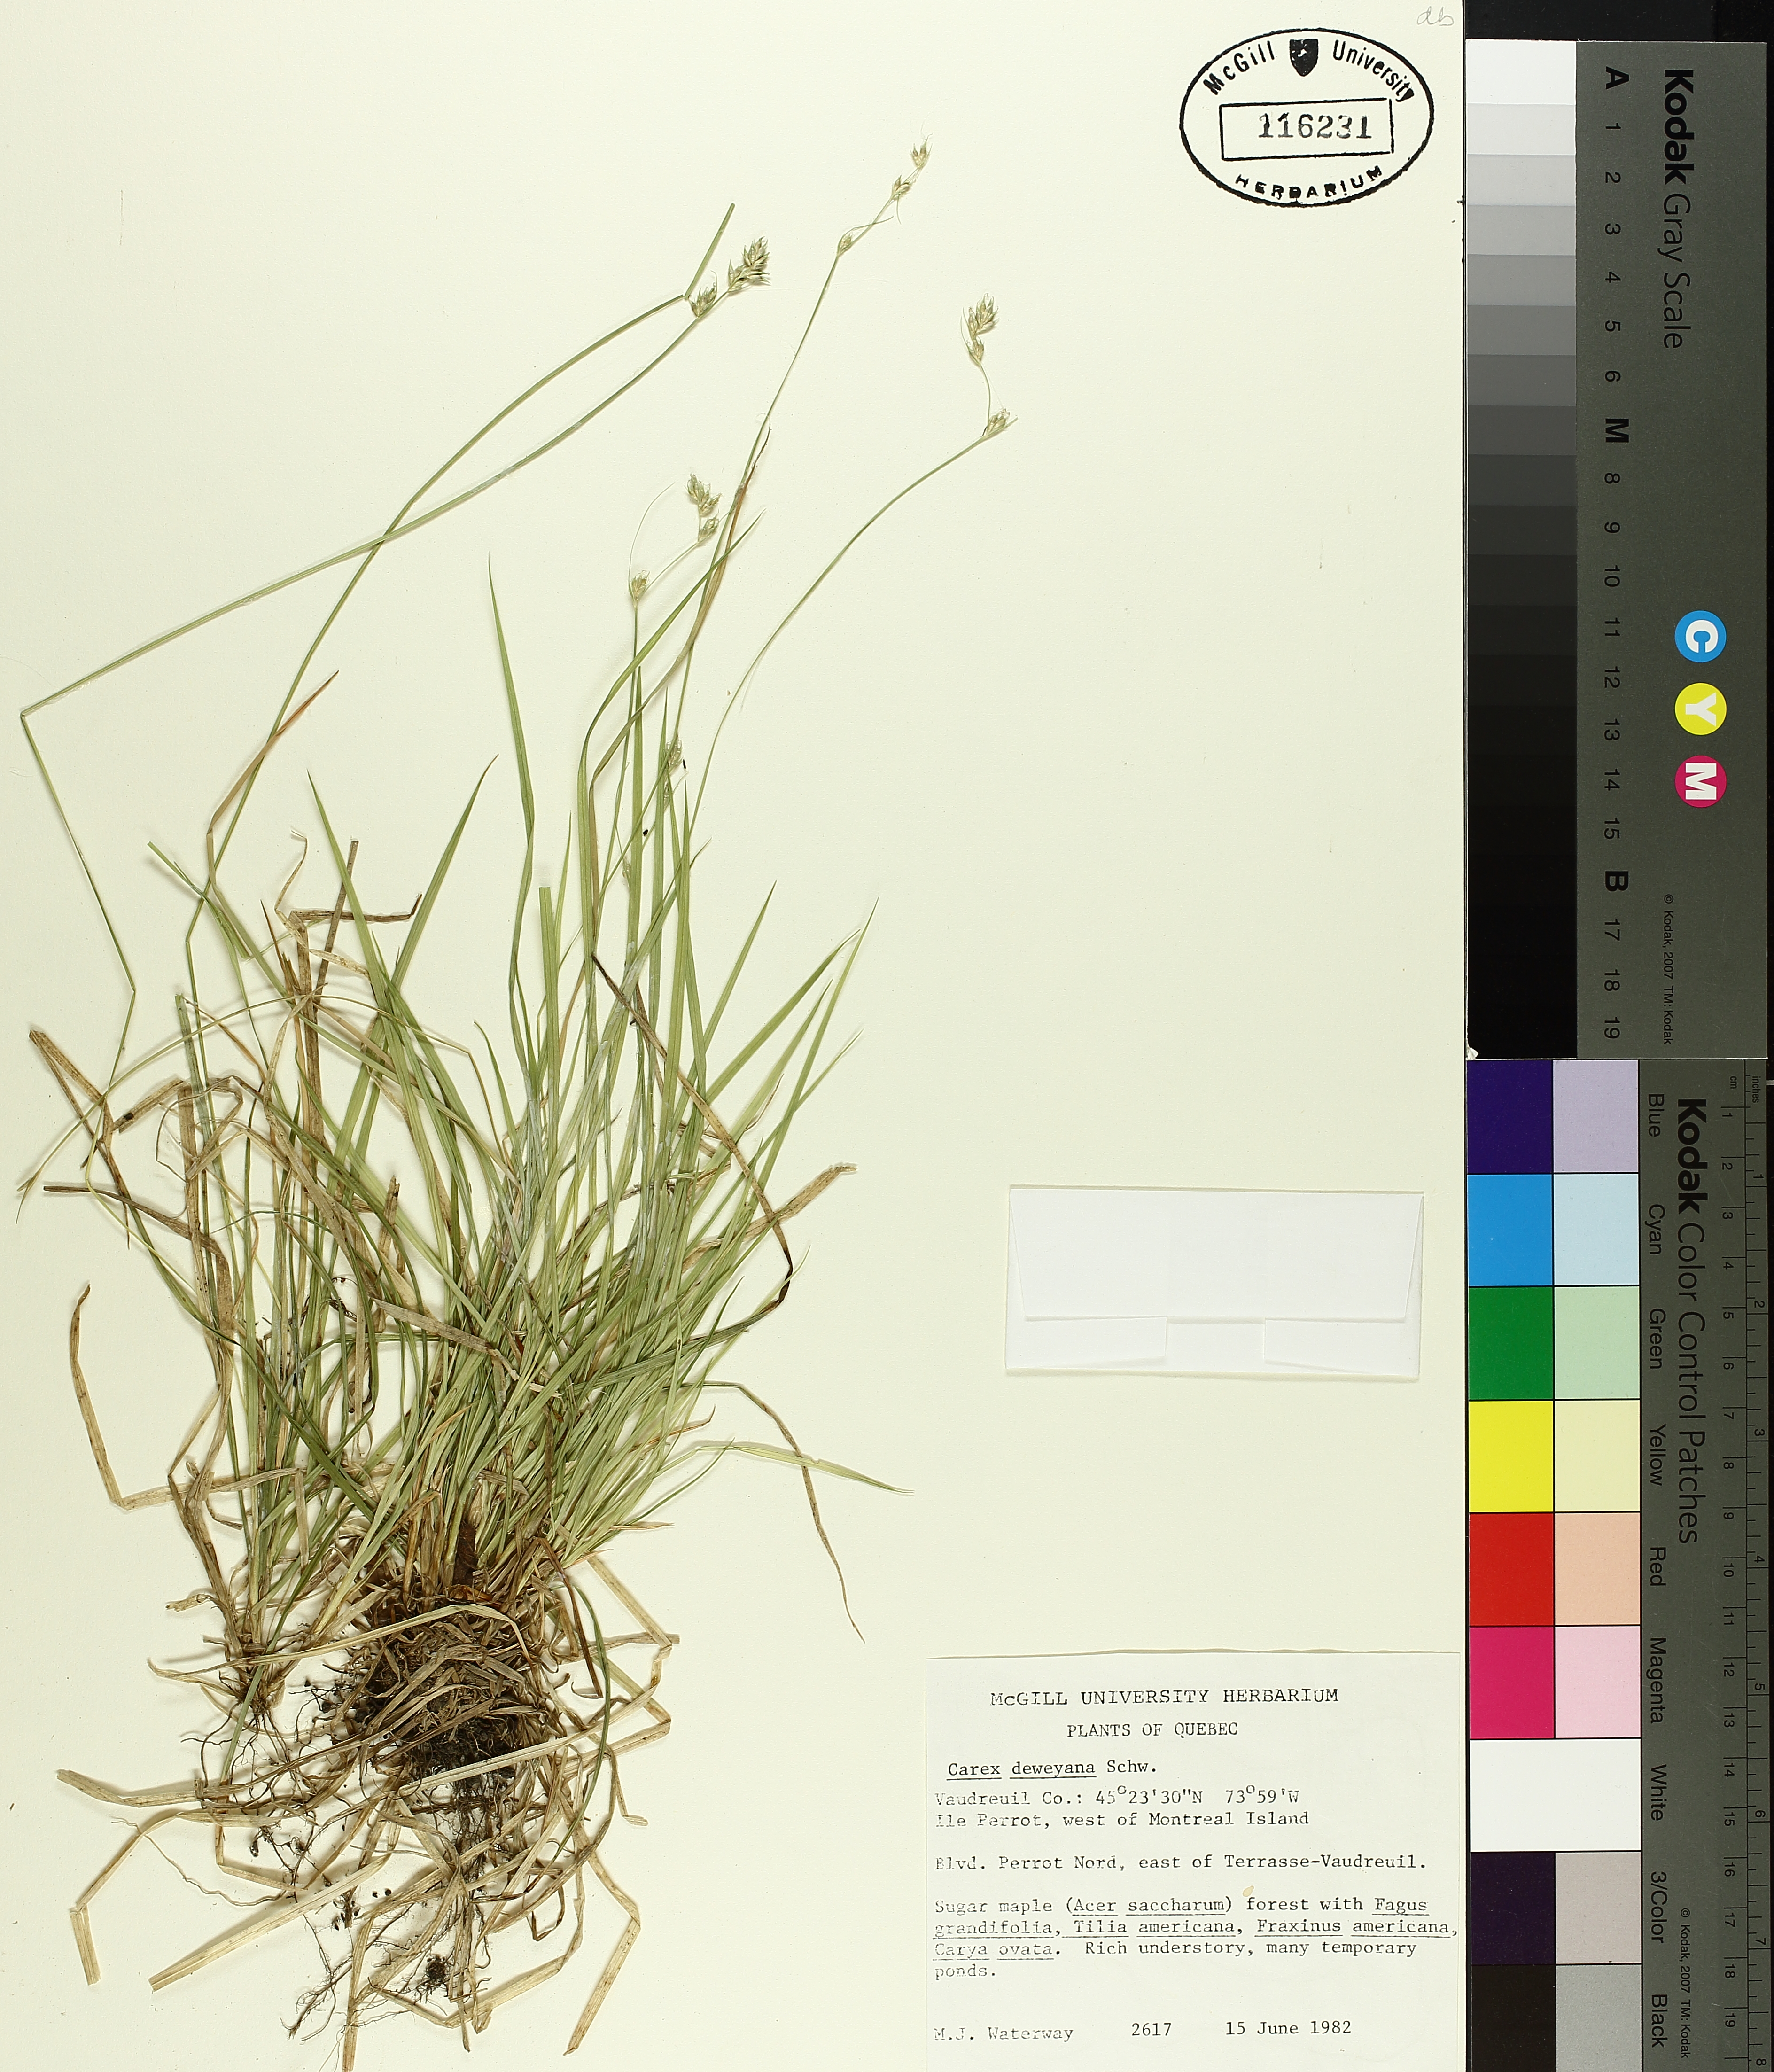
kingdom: Plantae
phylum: Tracheophyta
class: Liliopsida
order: Poales
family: Cyperaceae
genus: Carex
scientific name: Carex deweyana
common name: Dewey's sedge
